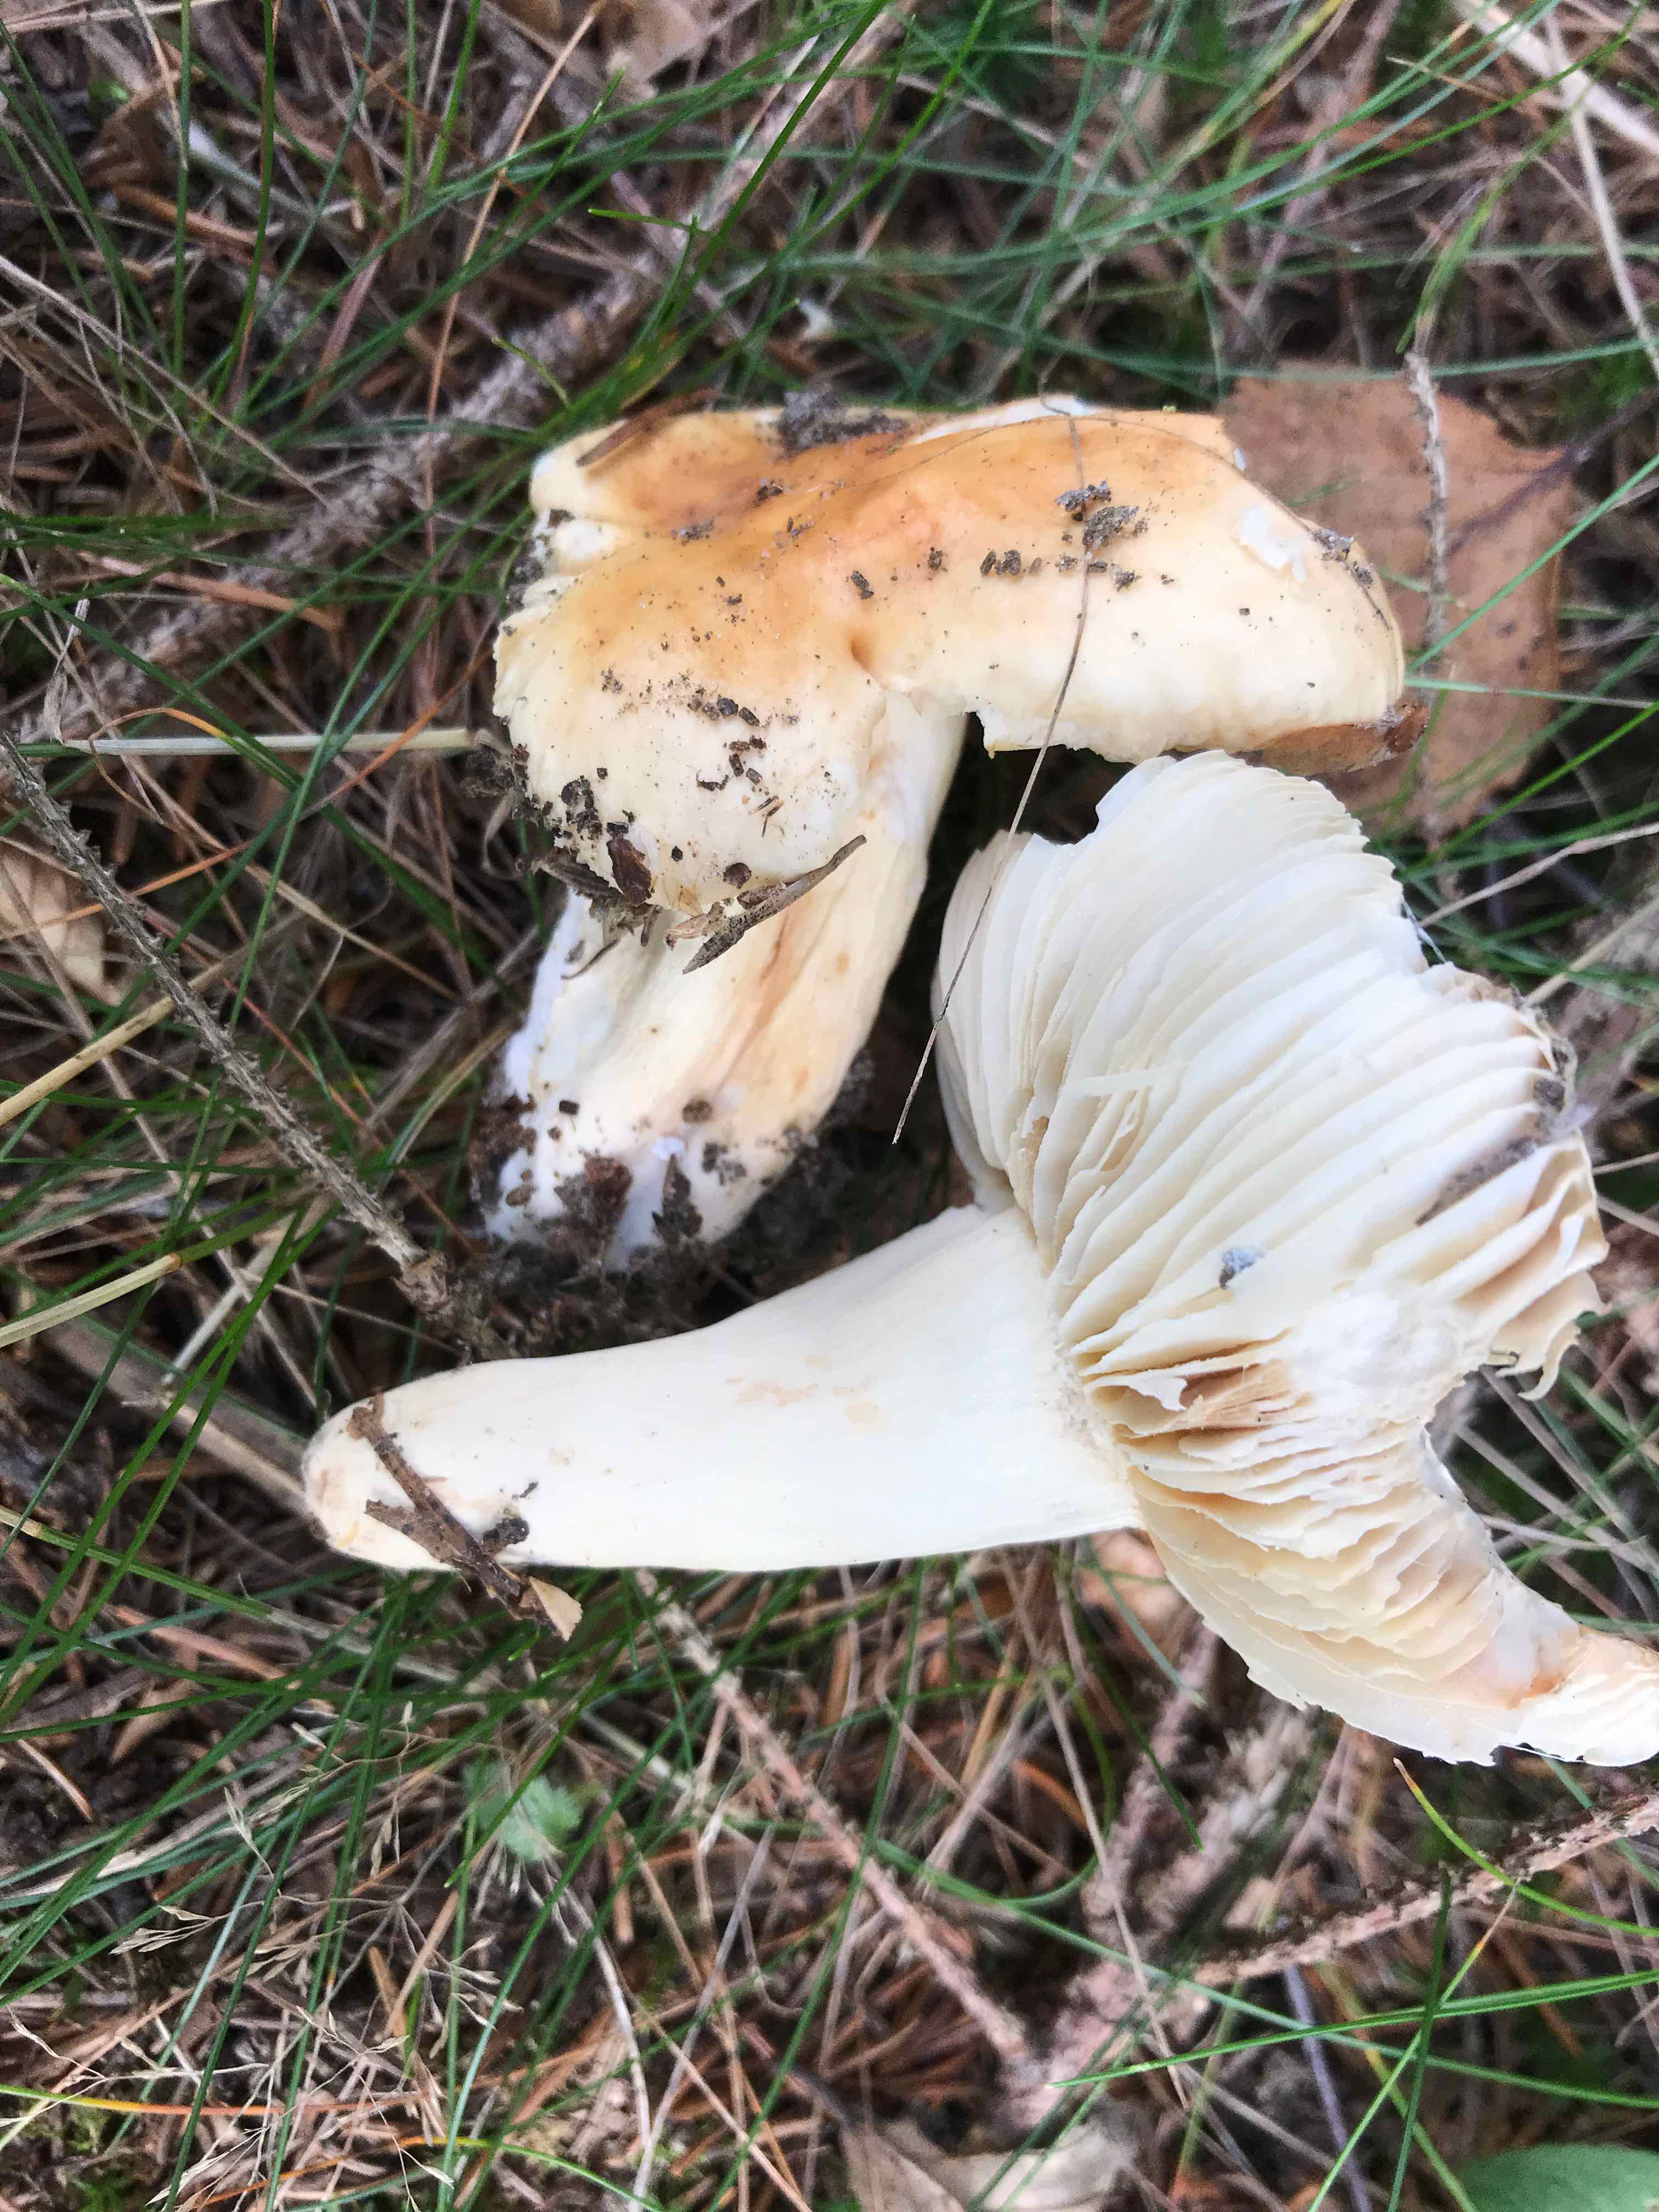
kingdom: Fungi
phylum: Basidiomycota
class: Agaricomycetes
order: Russulales
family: Russulaceae
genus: Russula
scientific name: Russula fellea
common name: galde-skørhat
